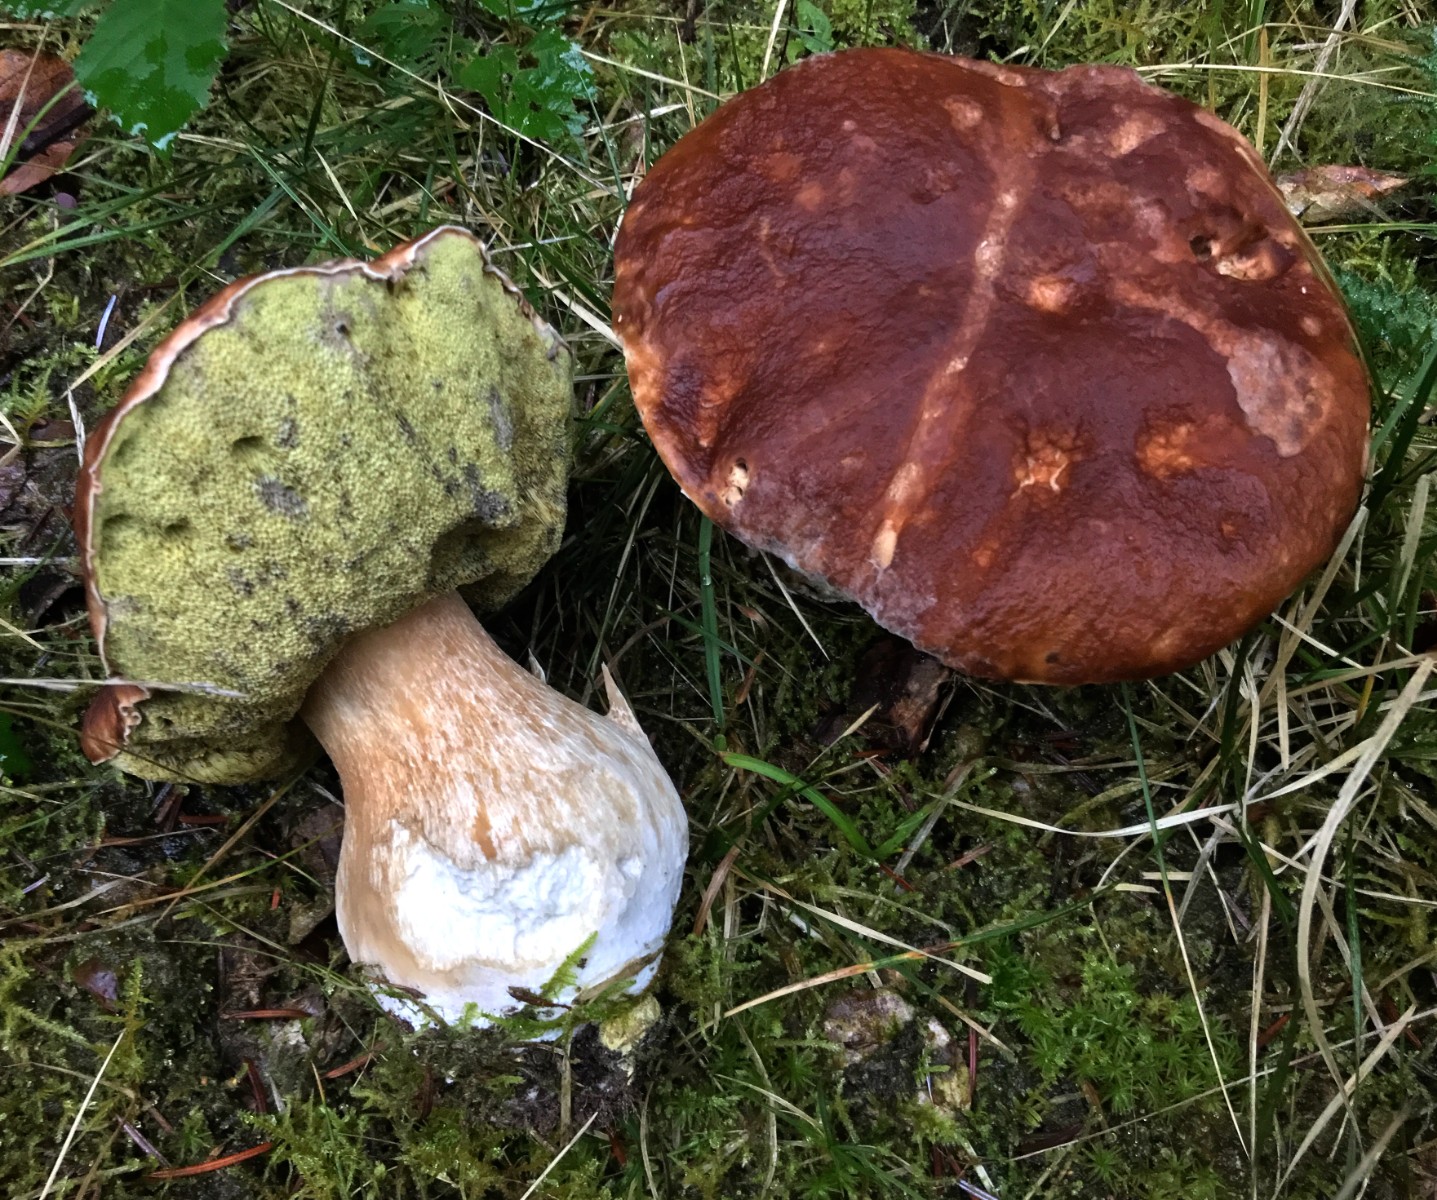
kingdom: Fungi
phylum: Basidiomycota
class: Agaricomycetes
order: Boletales
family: Boletaceae
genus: Boletus
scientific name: Boletus edulis
